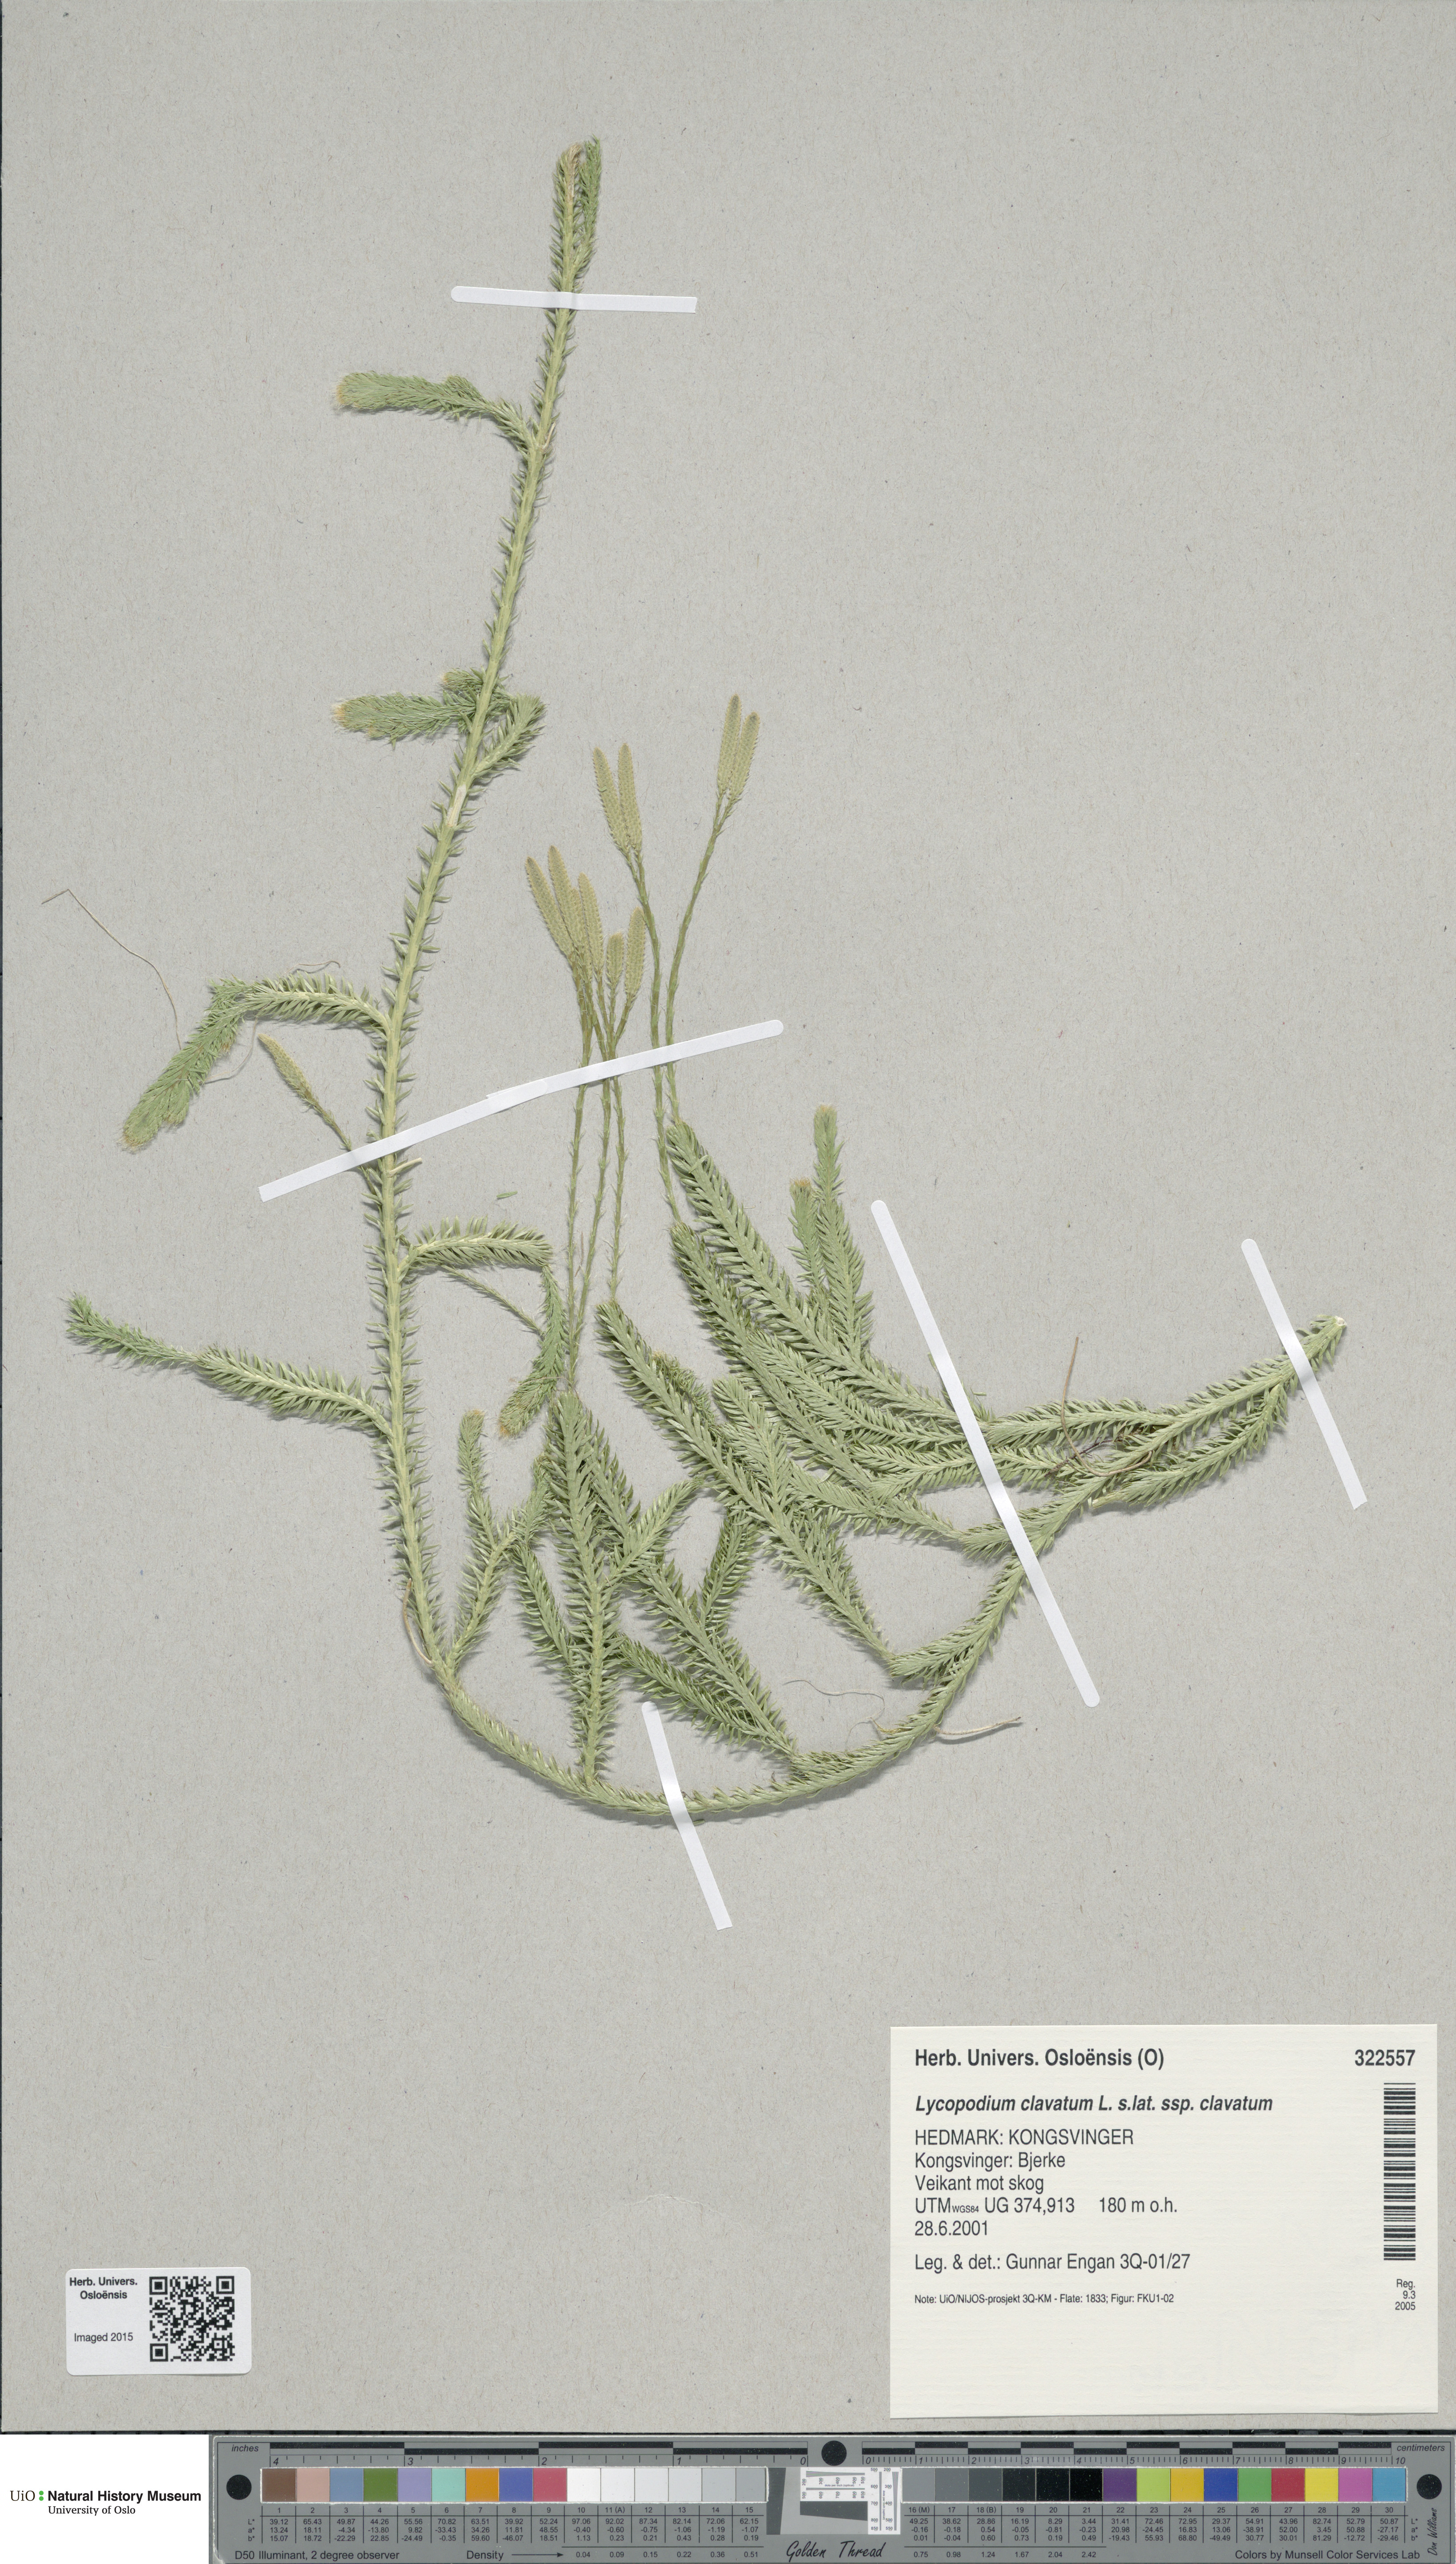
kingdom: Plantae
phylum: Tracheophyta
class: Lycopodiopsida
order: Lycopodiales
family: Lycopodiaceae
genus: Lycopodium
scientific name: Lycopodium clavatum
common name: Stag's-horn clubmoss
